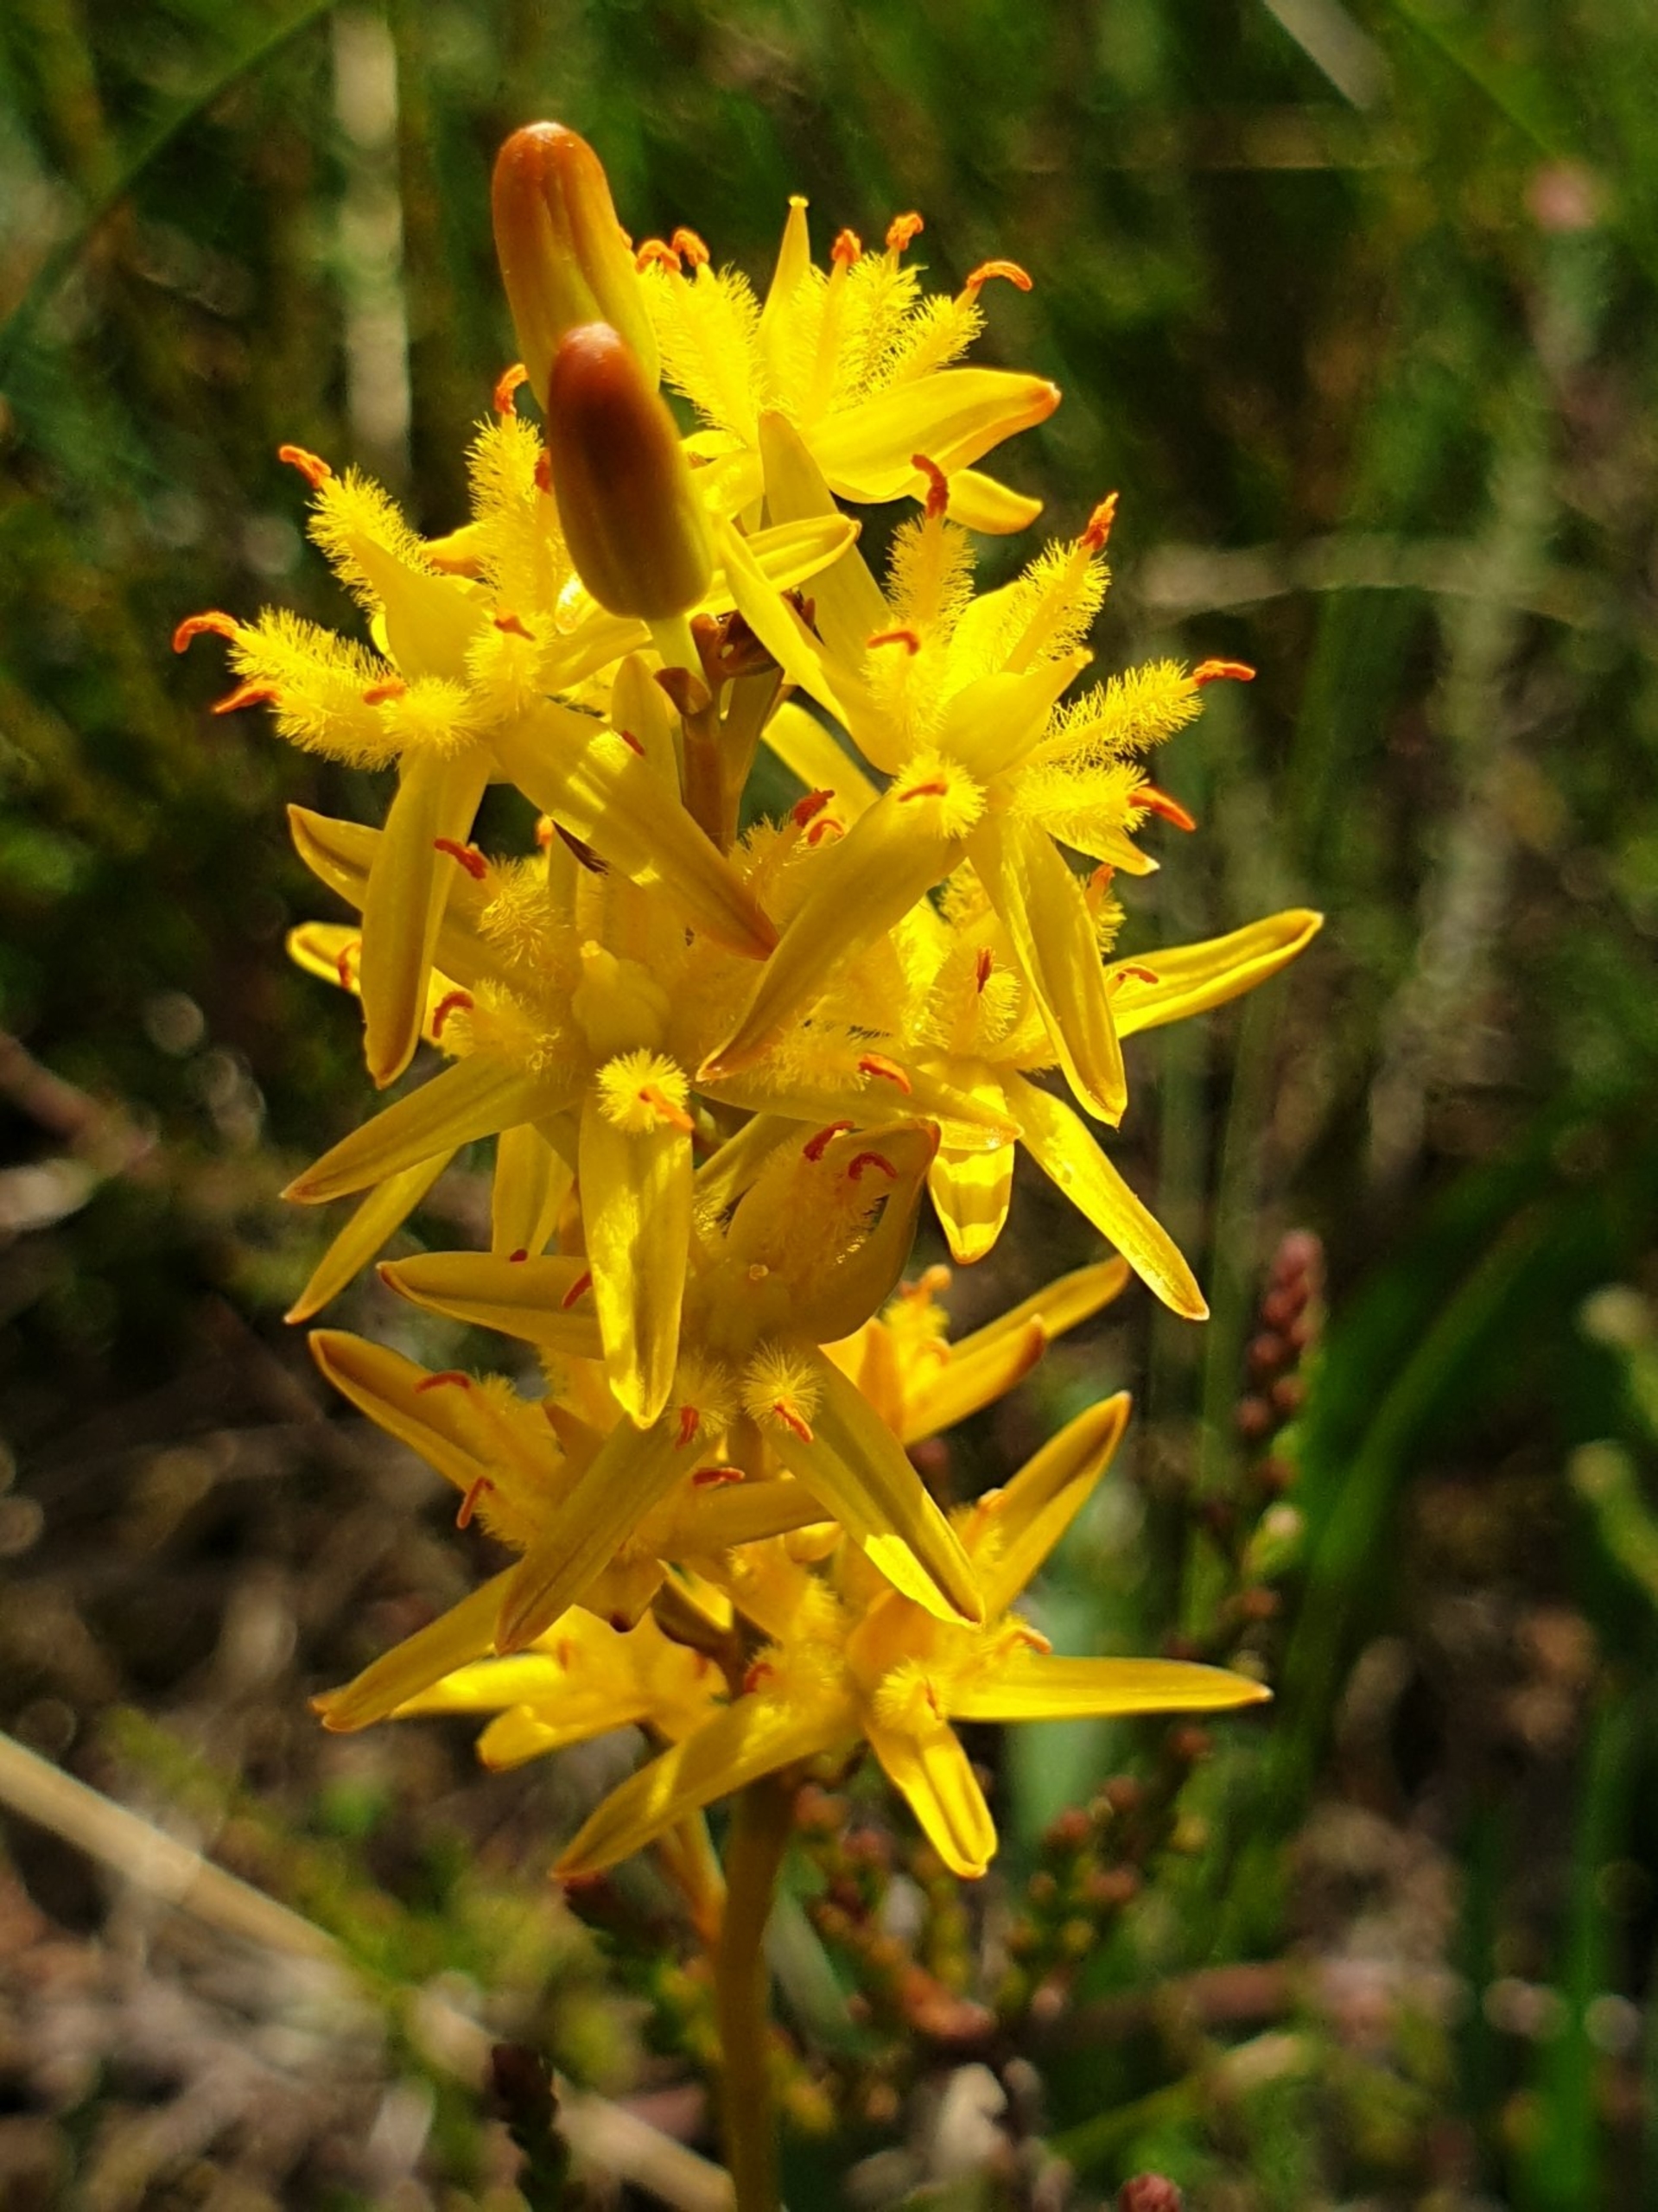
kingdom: Plantae
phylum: Tracheophyta
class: Liliopsida
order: Dioscoreales
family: Nartheciaceae
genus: Narthecium
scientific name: Narthecium ossifragum
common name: Benbræk
